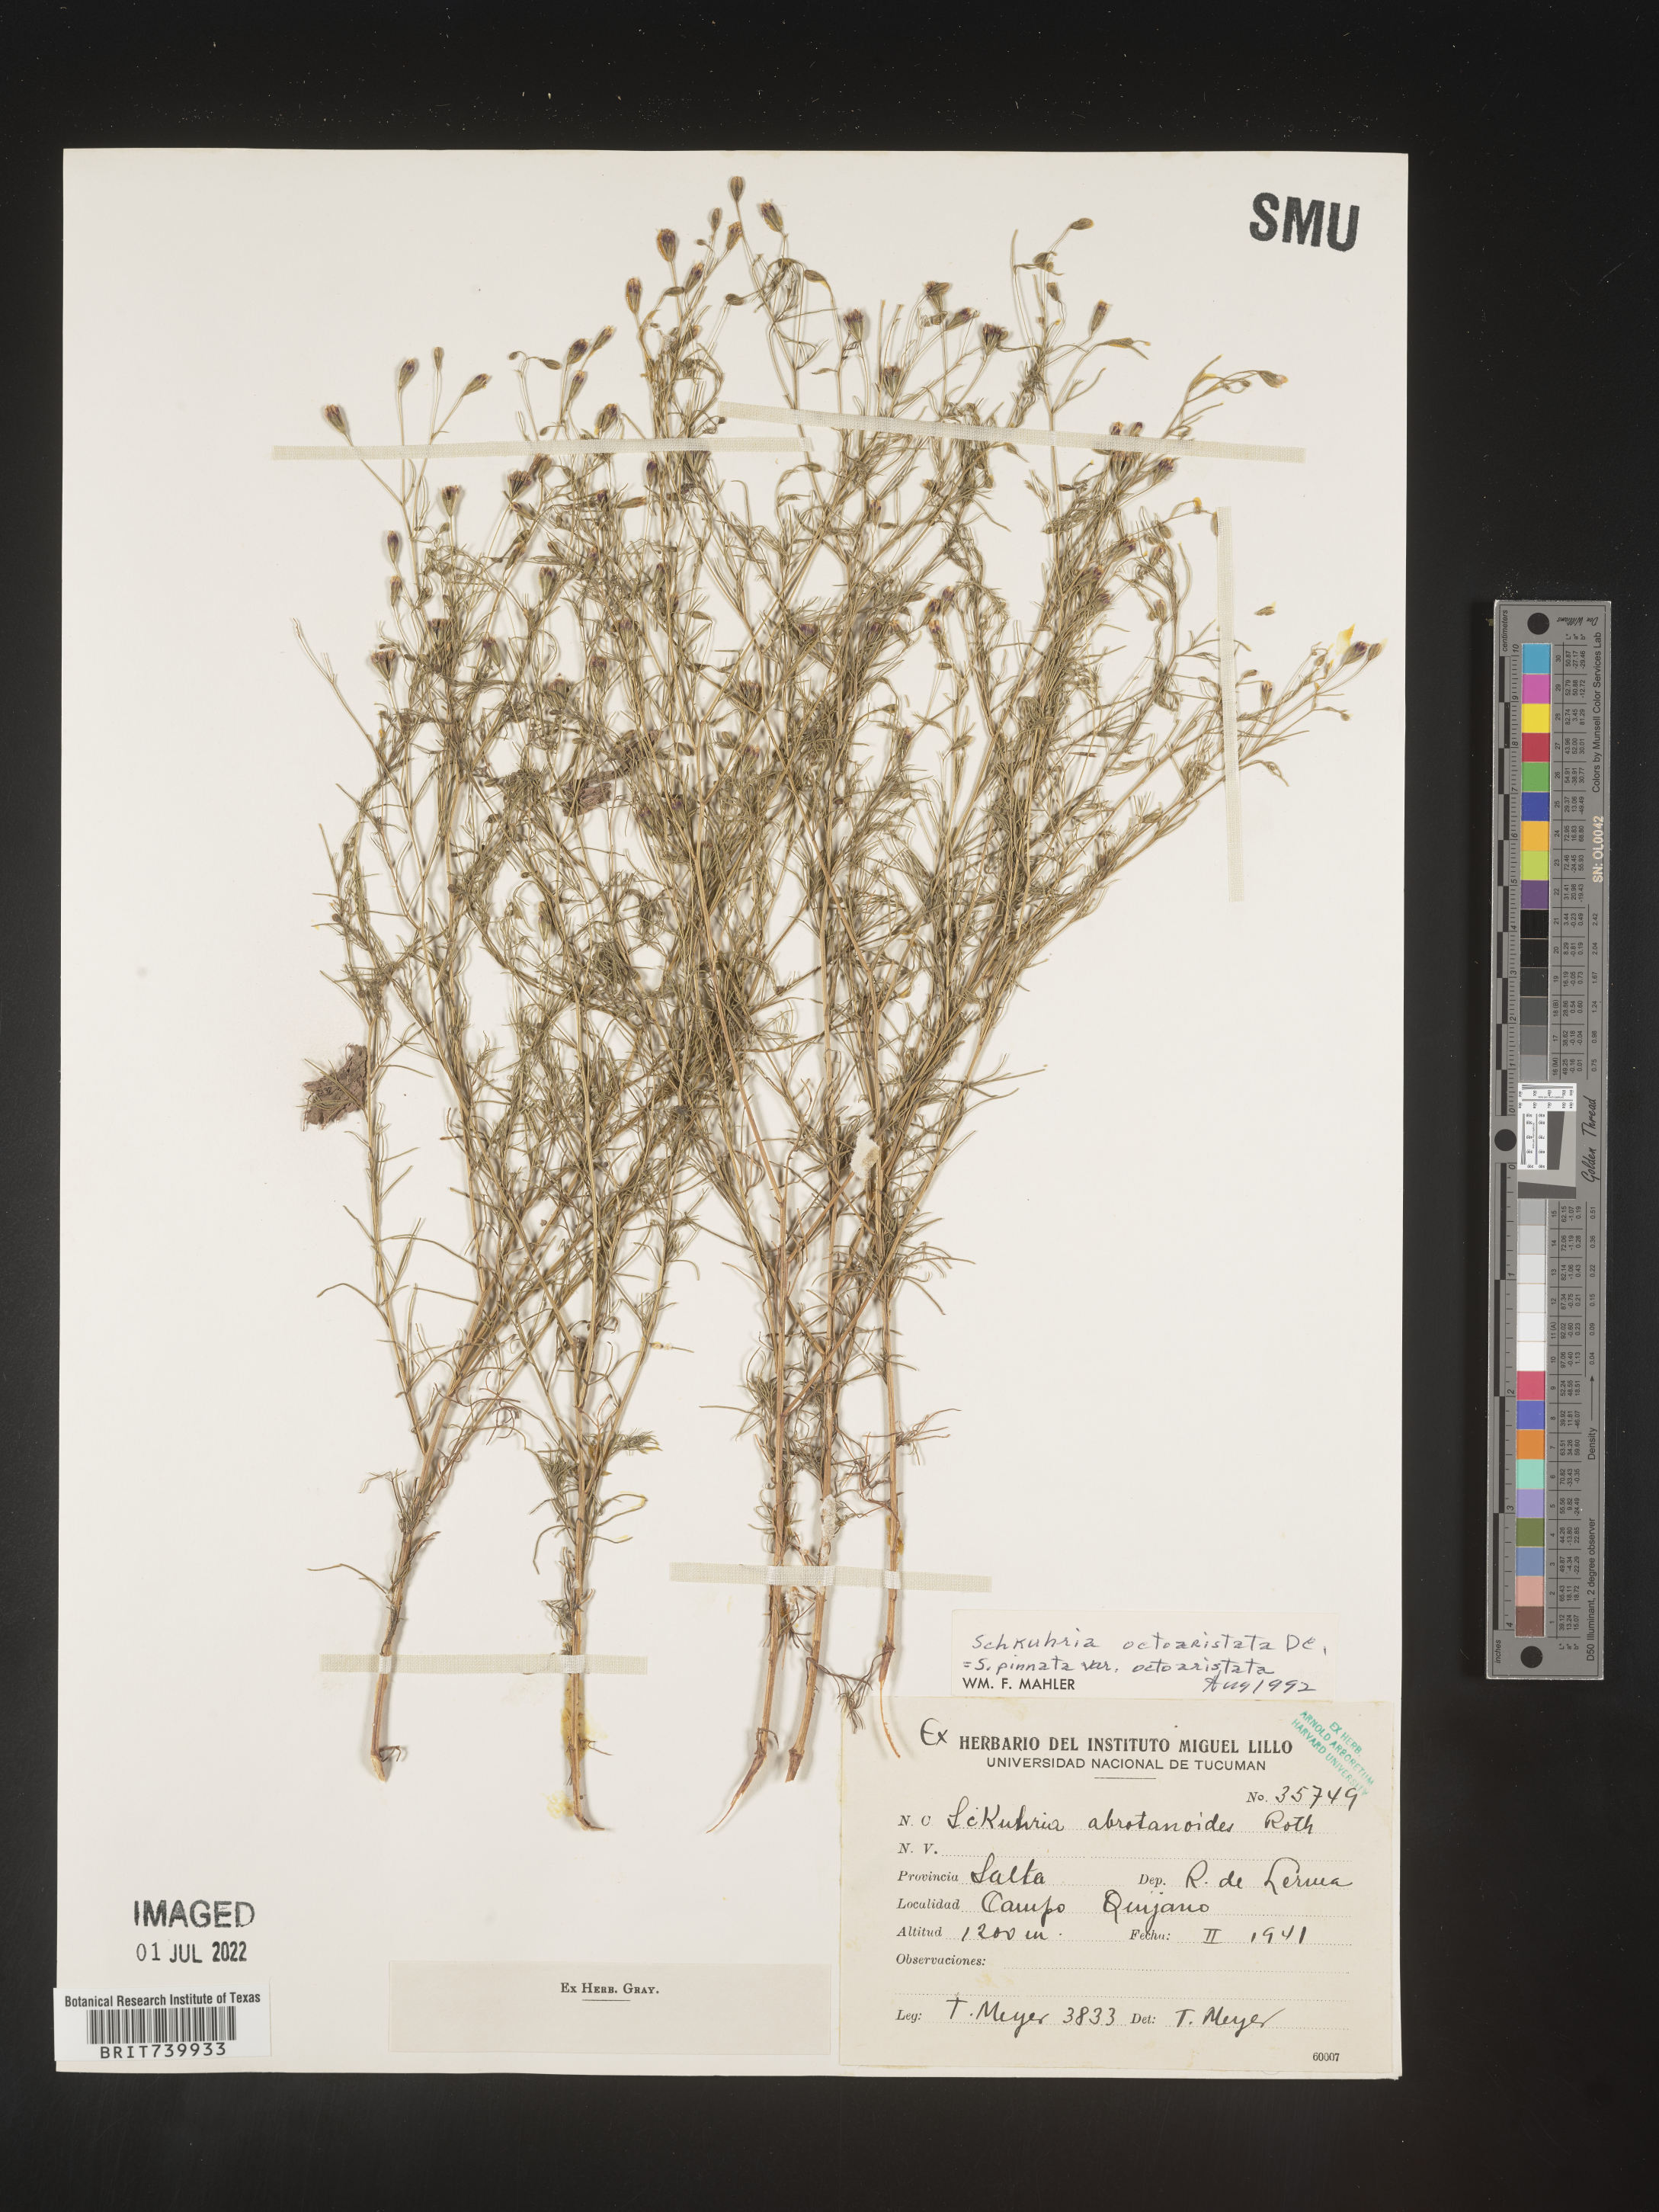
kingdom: Plantae
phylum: Tracheophyta
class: Magnoliopsida
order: Asterales
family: Asteraceae
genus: Schkuhria
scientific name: Schkuhria
